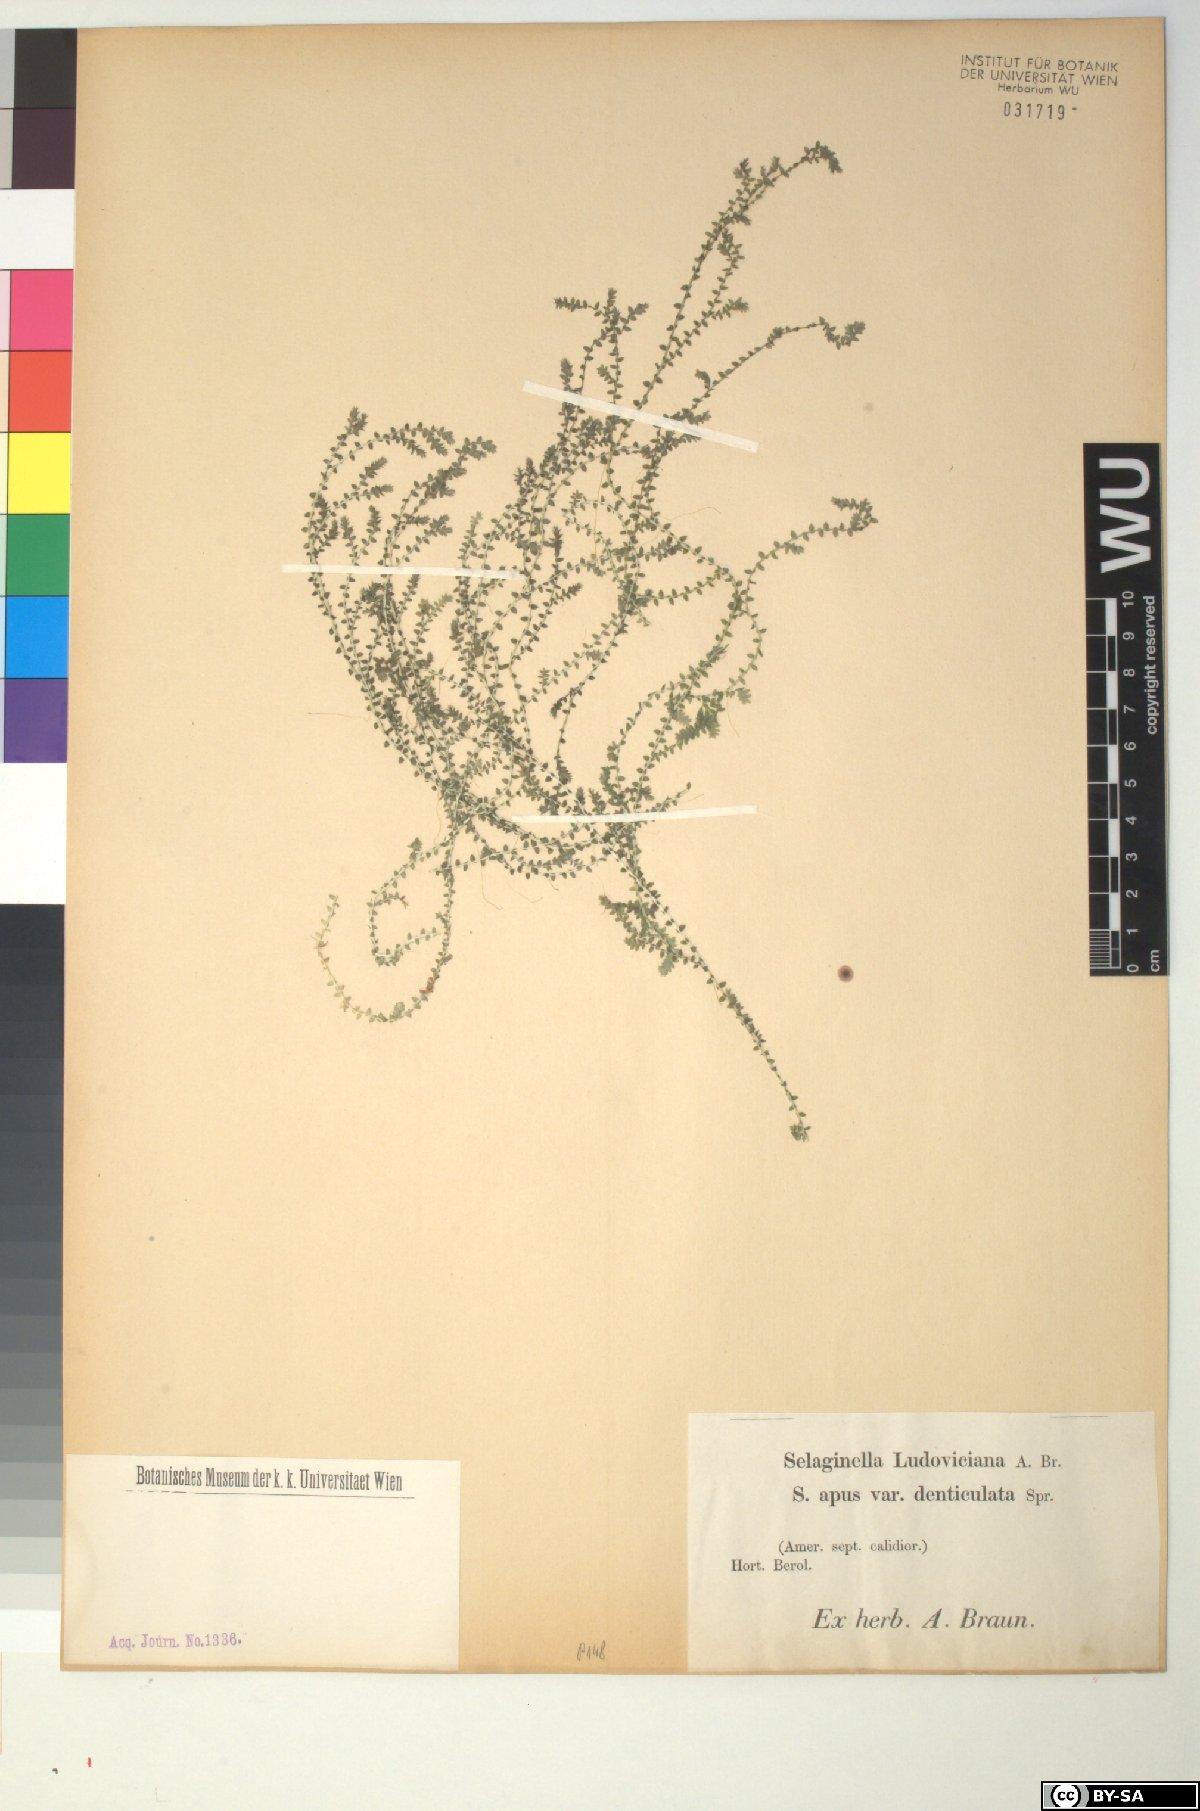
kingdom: Plantae
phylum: Tracheophyta
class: Lycopodiopsida
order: Selaginellales
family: Selaginellaceae
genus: Selaginella
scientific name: Selaginella ludoviciana
